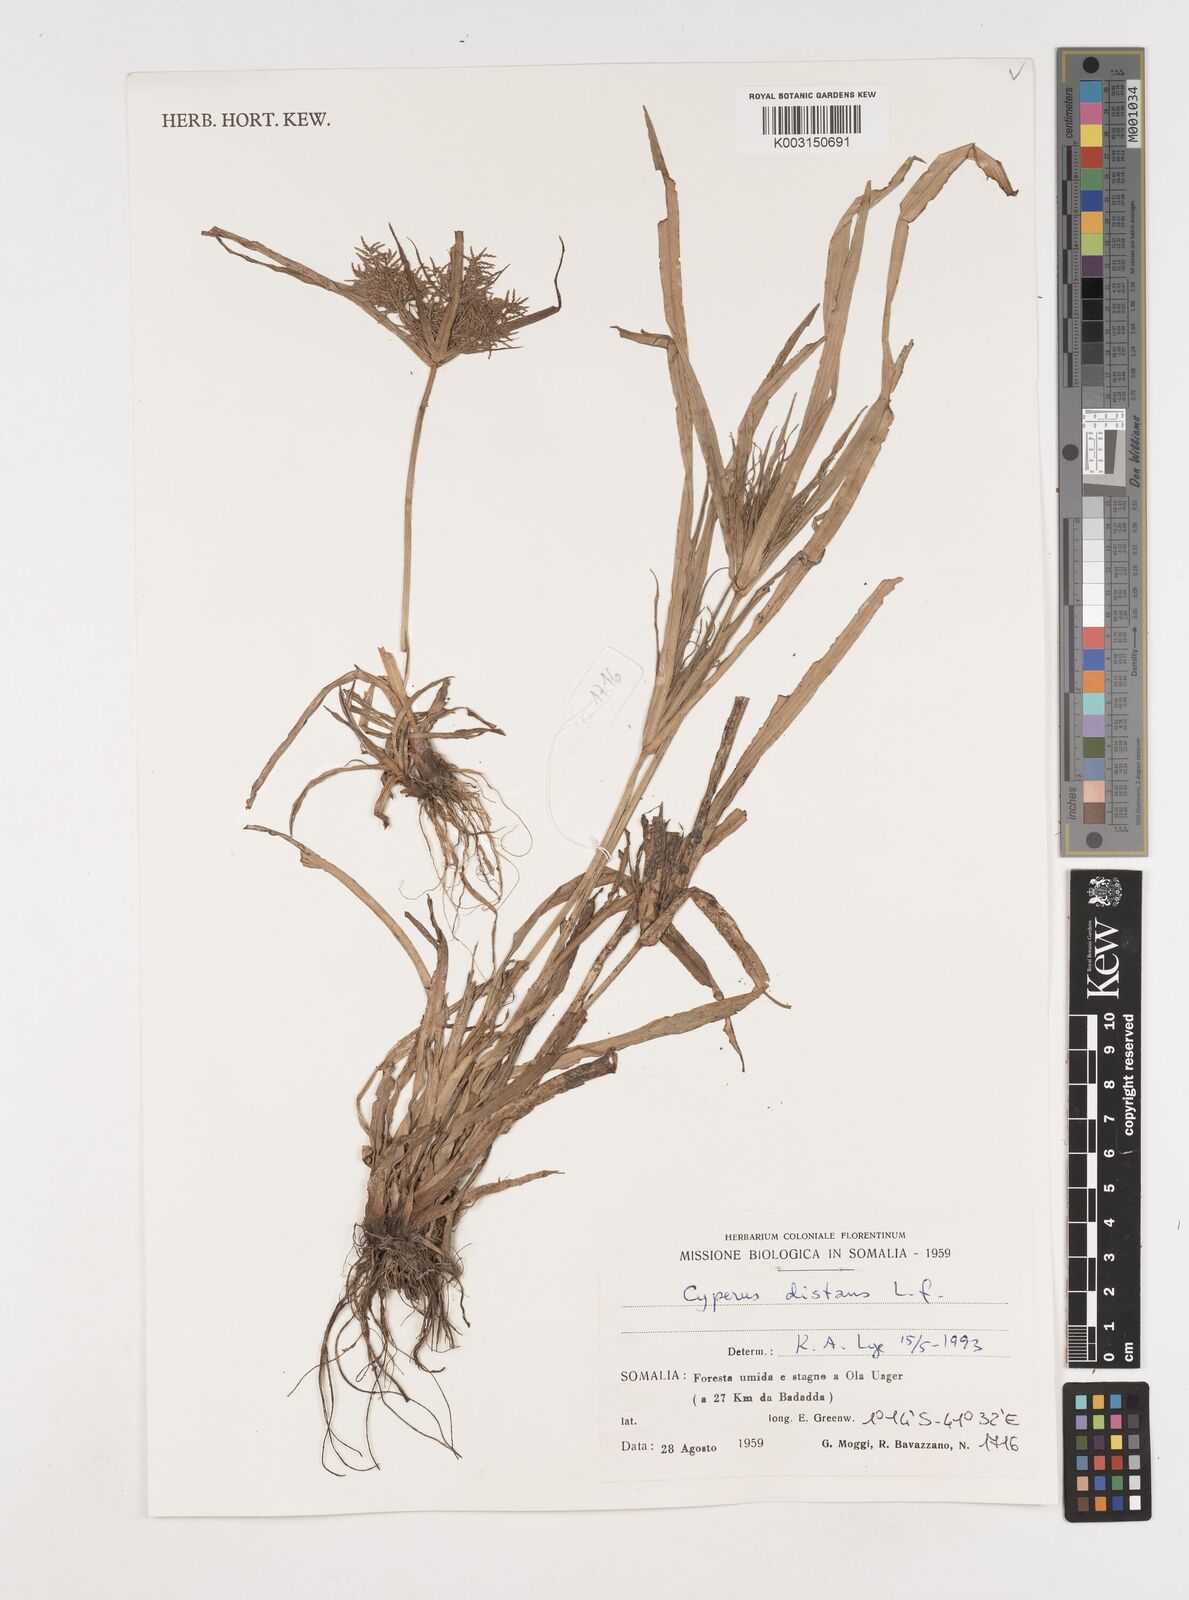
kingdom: Plantae
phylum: Tracheophyta
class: Liliopsida
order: Poales
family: Cyperaceae
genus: Cyperus
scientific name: Cyperus distans
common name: Slender cyperus
